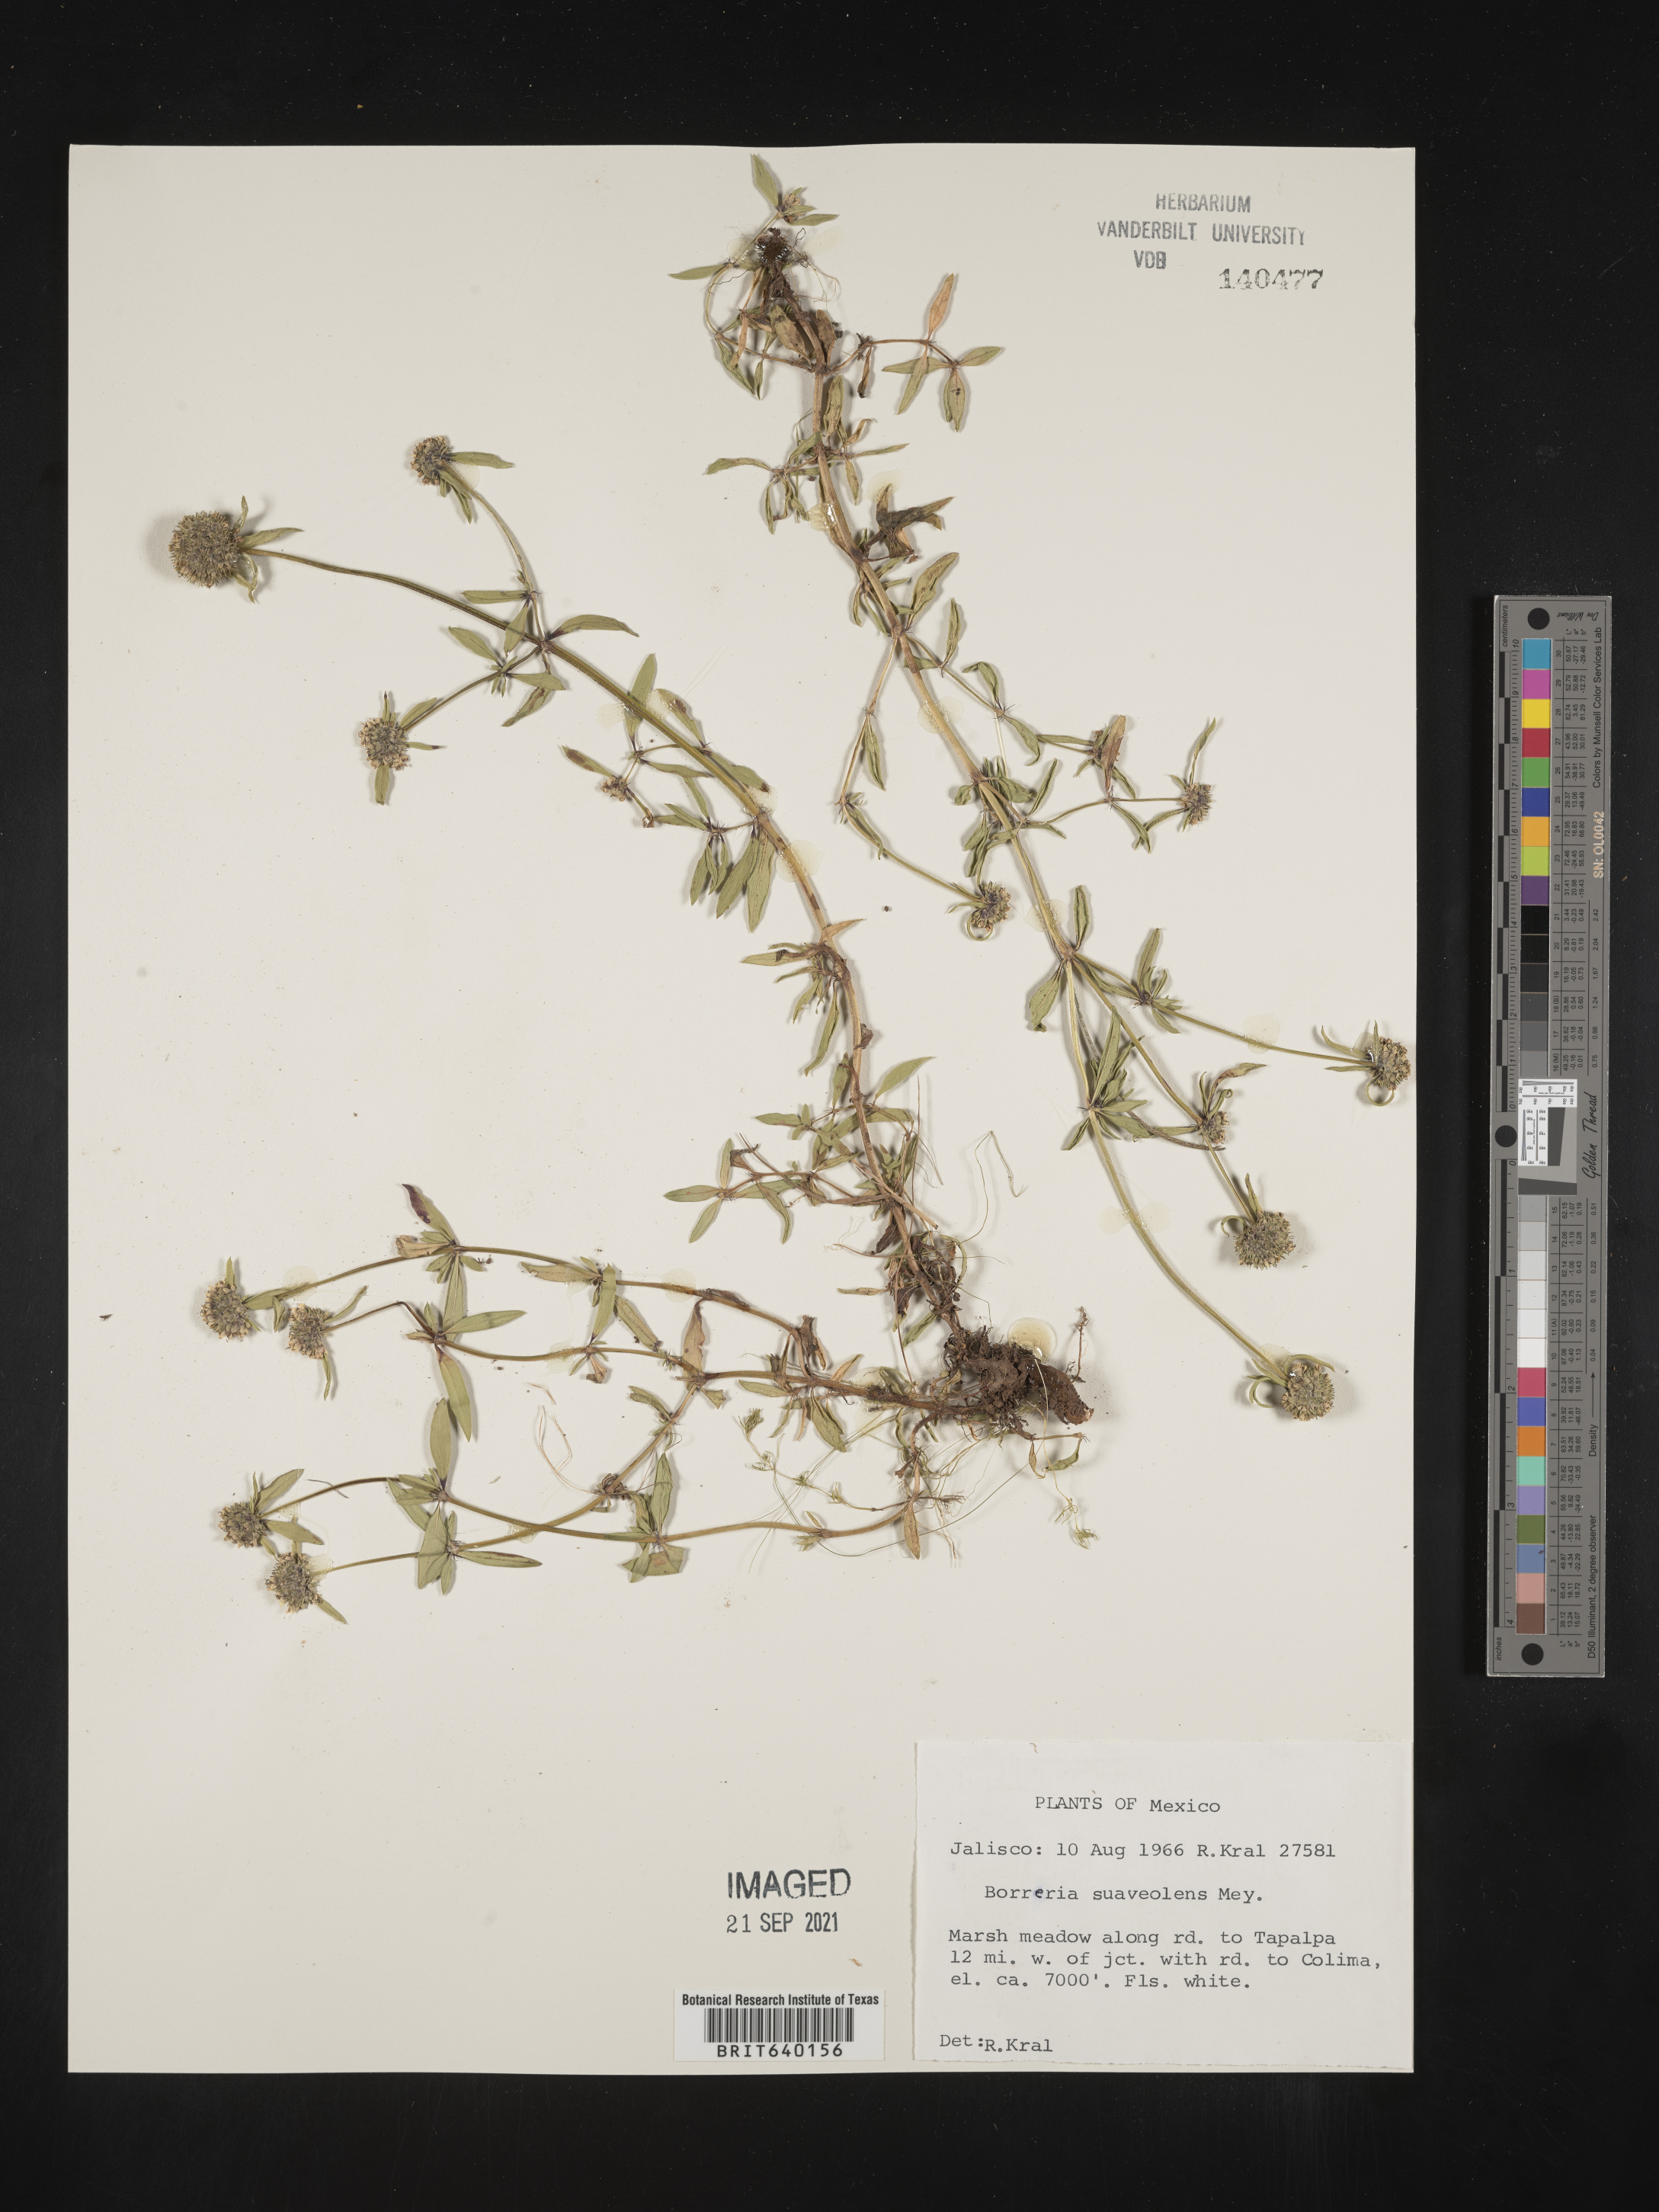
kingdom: Plantae
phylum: Tracheophyta
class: Magnoliopsida
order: Gentianales
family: Rubiaceae
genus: Spermacoce
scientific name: Spermacoce
